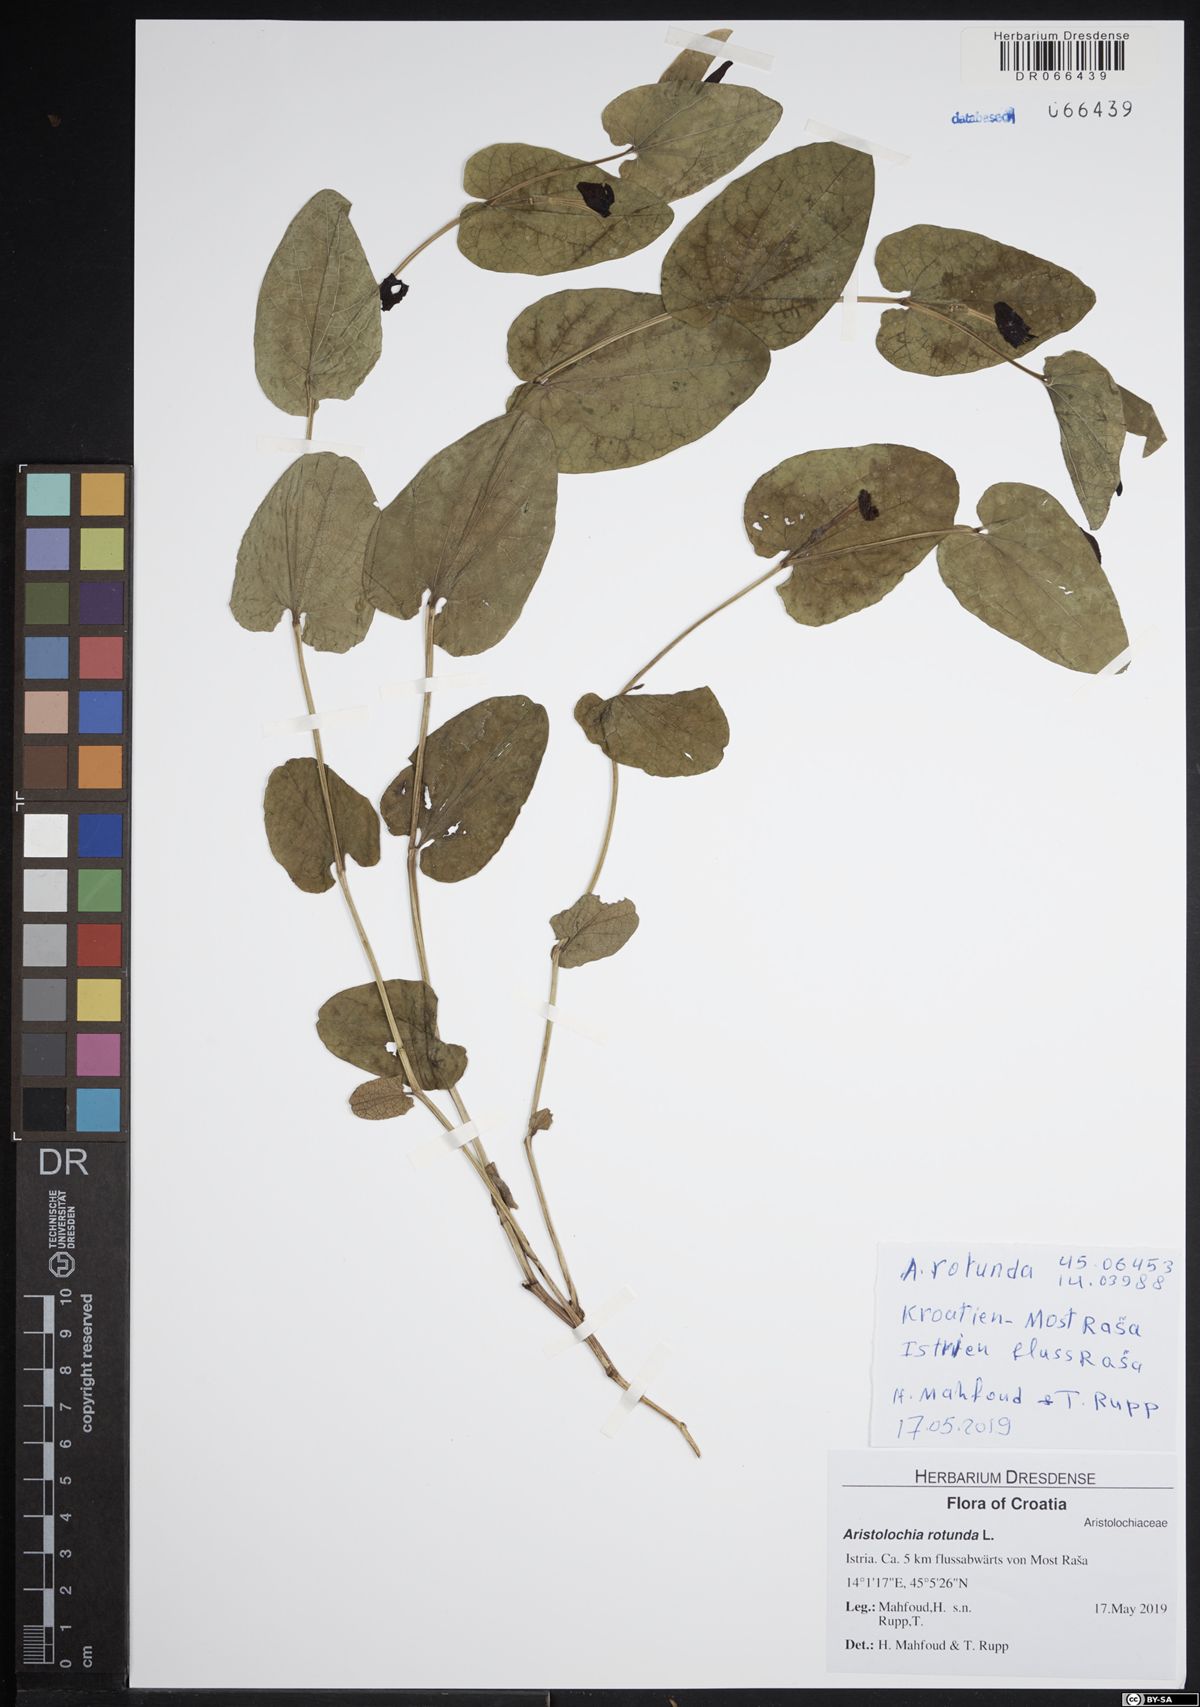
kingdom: Plantae
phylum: Tracheophyta
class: Magnoliopsida
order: Piperales
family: Aristolochiaceae
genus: Aristolochia
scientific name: Aristolochia rotunda
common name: Smearwort
